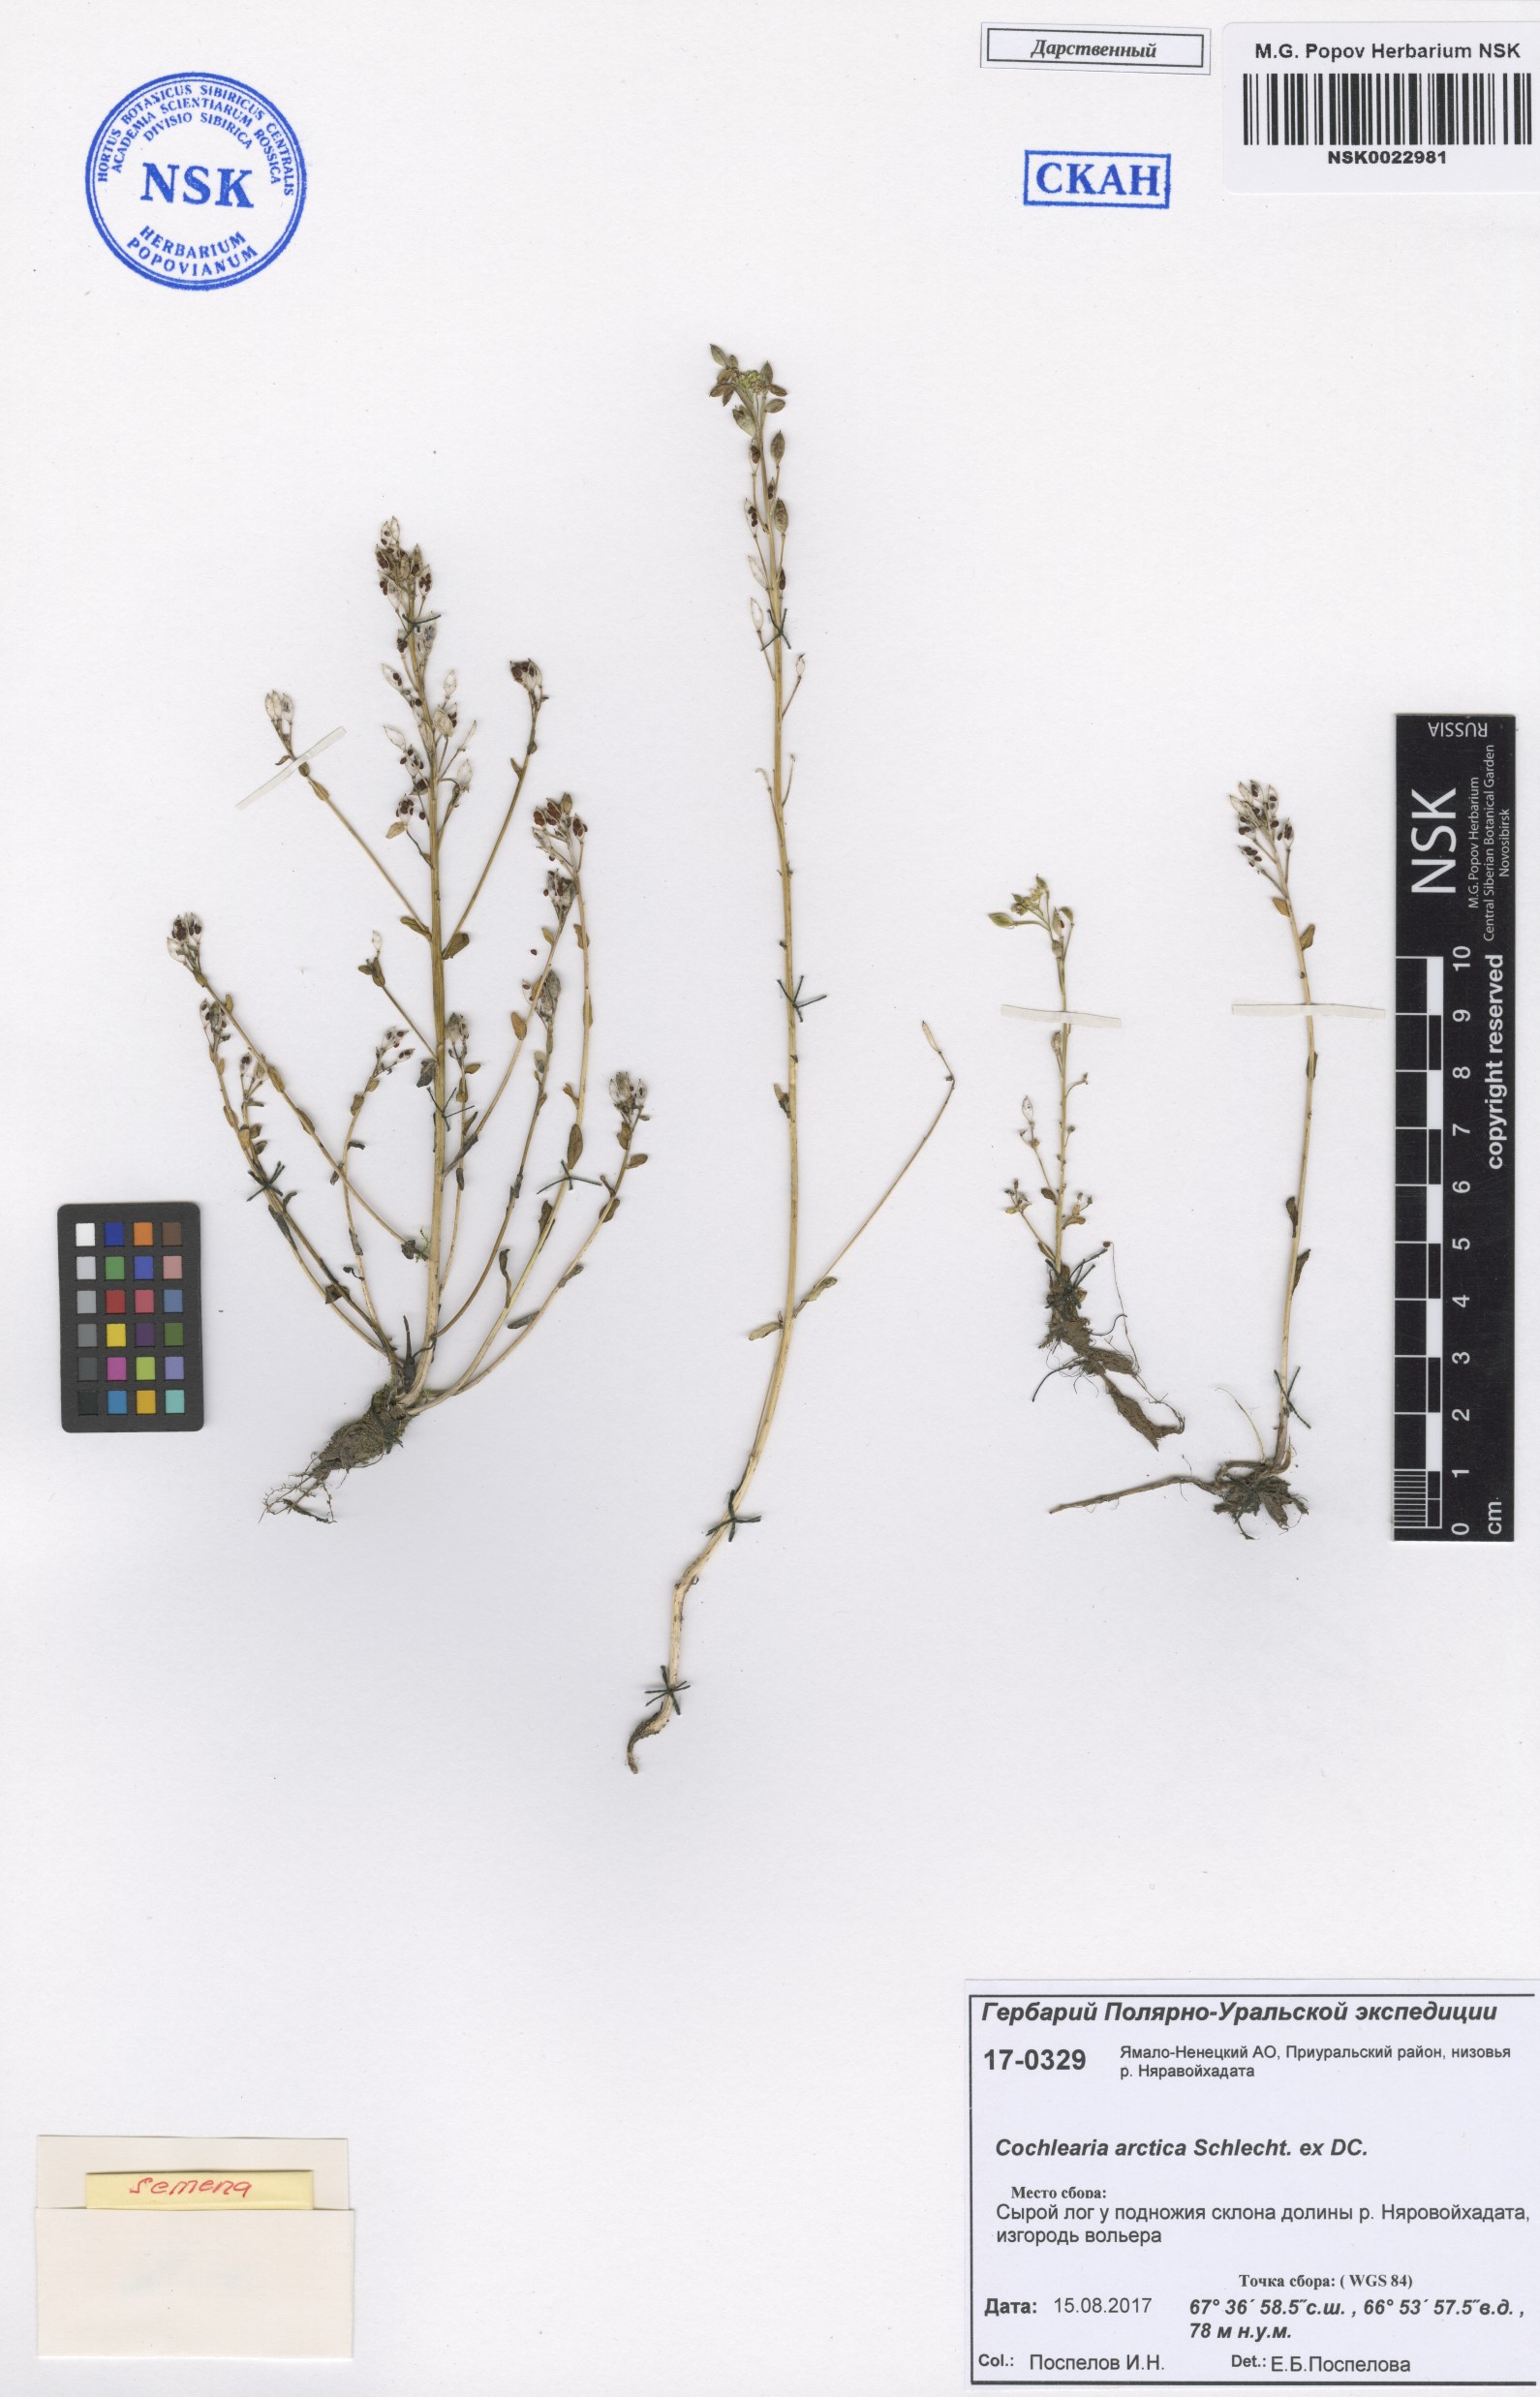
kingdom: Plantae
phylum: Tracheophyta
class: Magnoliopsida
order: Brassicales
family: Brassicaceae
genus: Cochlearia
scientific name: Cochlearia groenlandica
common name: Danish scurvygrass
